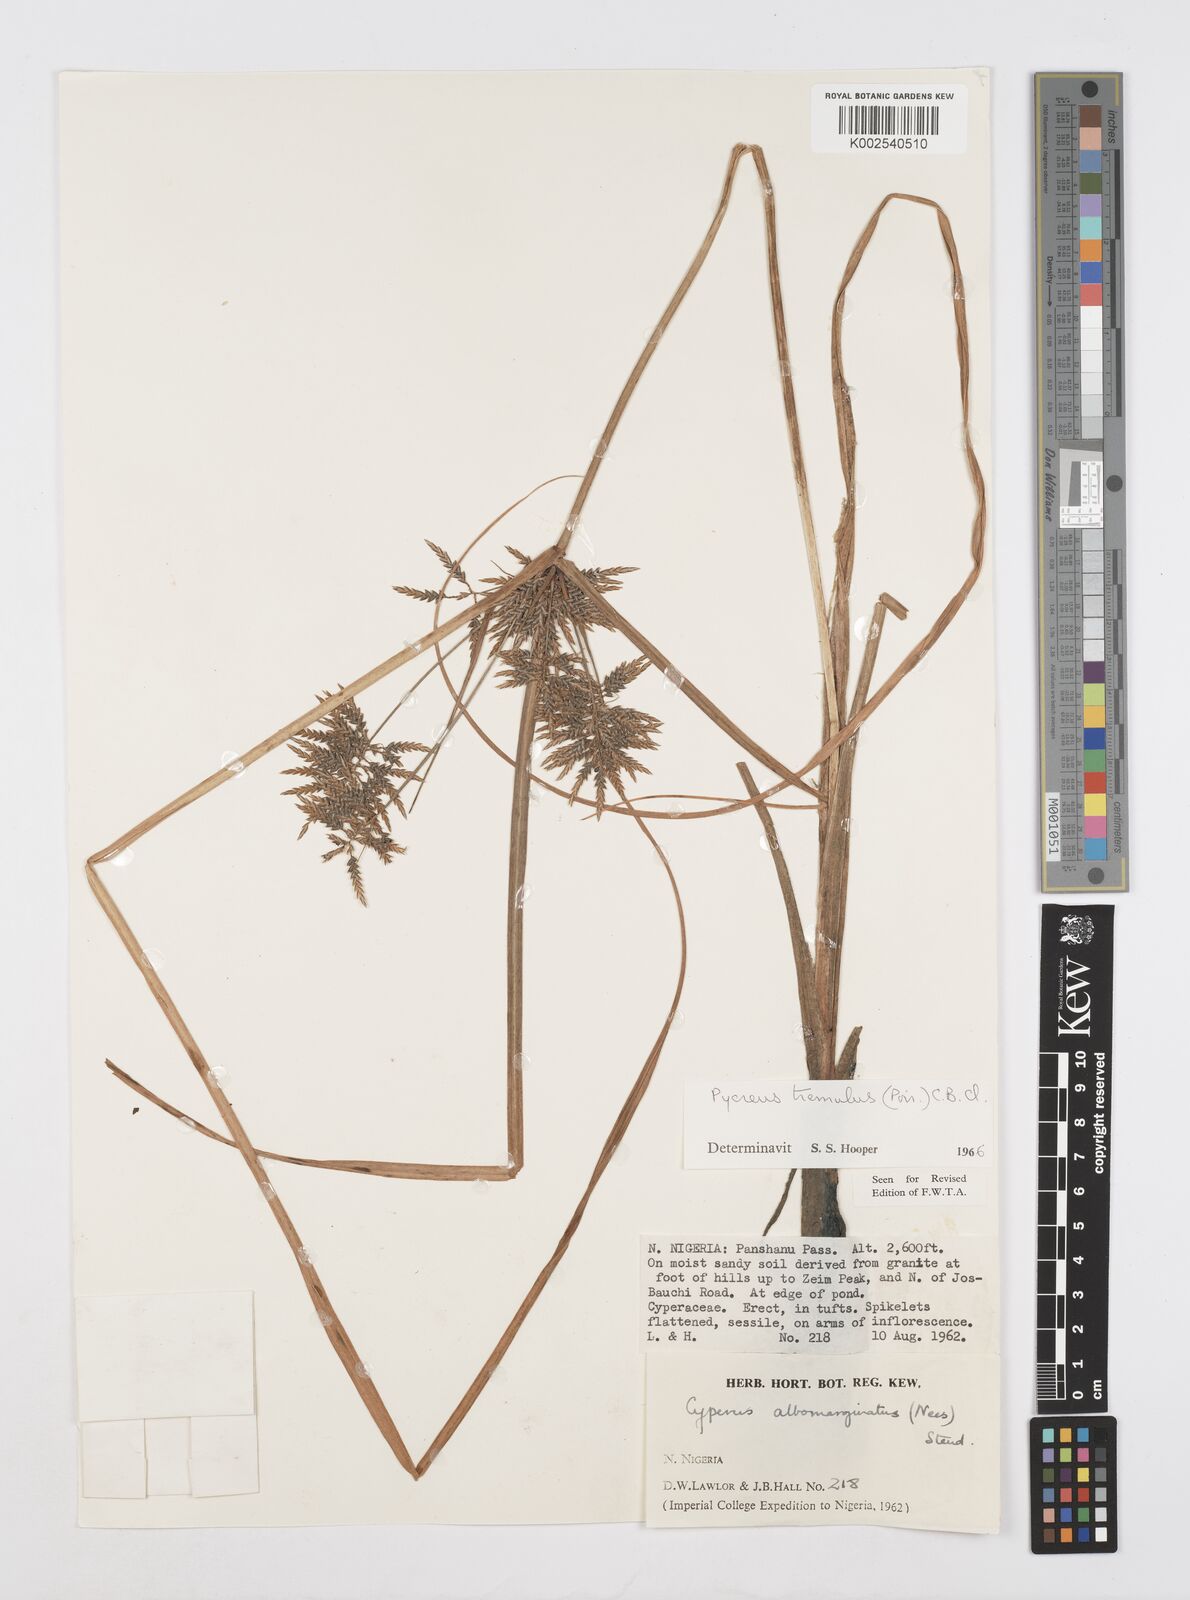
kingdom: Plantae
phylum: Tracheophyta
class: Liliopsida
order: Poales
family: Cyperaceae
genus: Cyperus
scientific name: Cyperus macrostachyos
